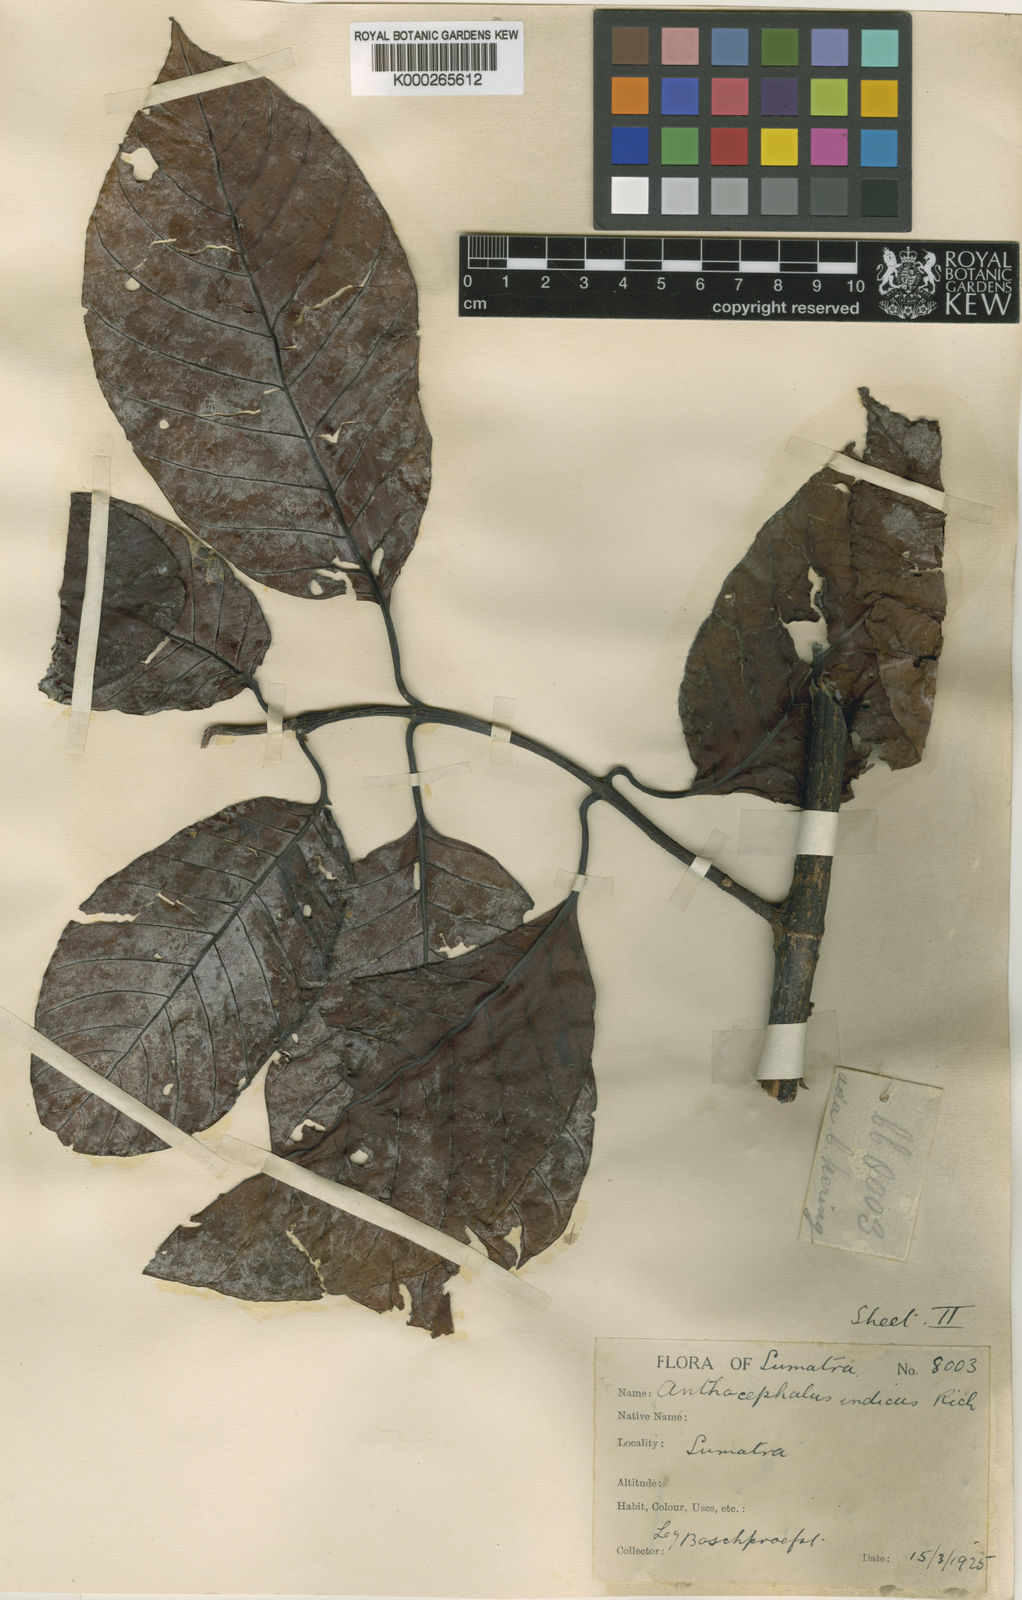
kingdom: Plantae
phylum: Tracheophyta
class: Magnoliopsida
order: Gentianales
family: Rubiaceae
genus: Neolamarckia
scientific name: Neolamarckia cadamba
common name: Leichhardt-pine
